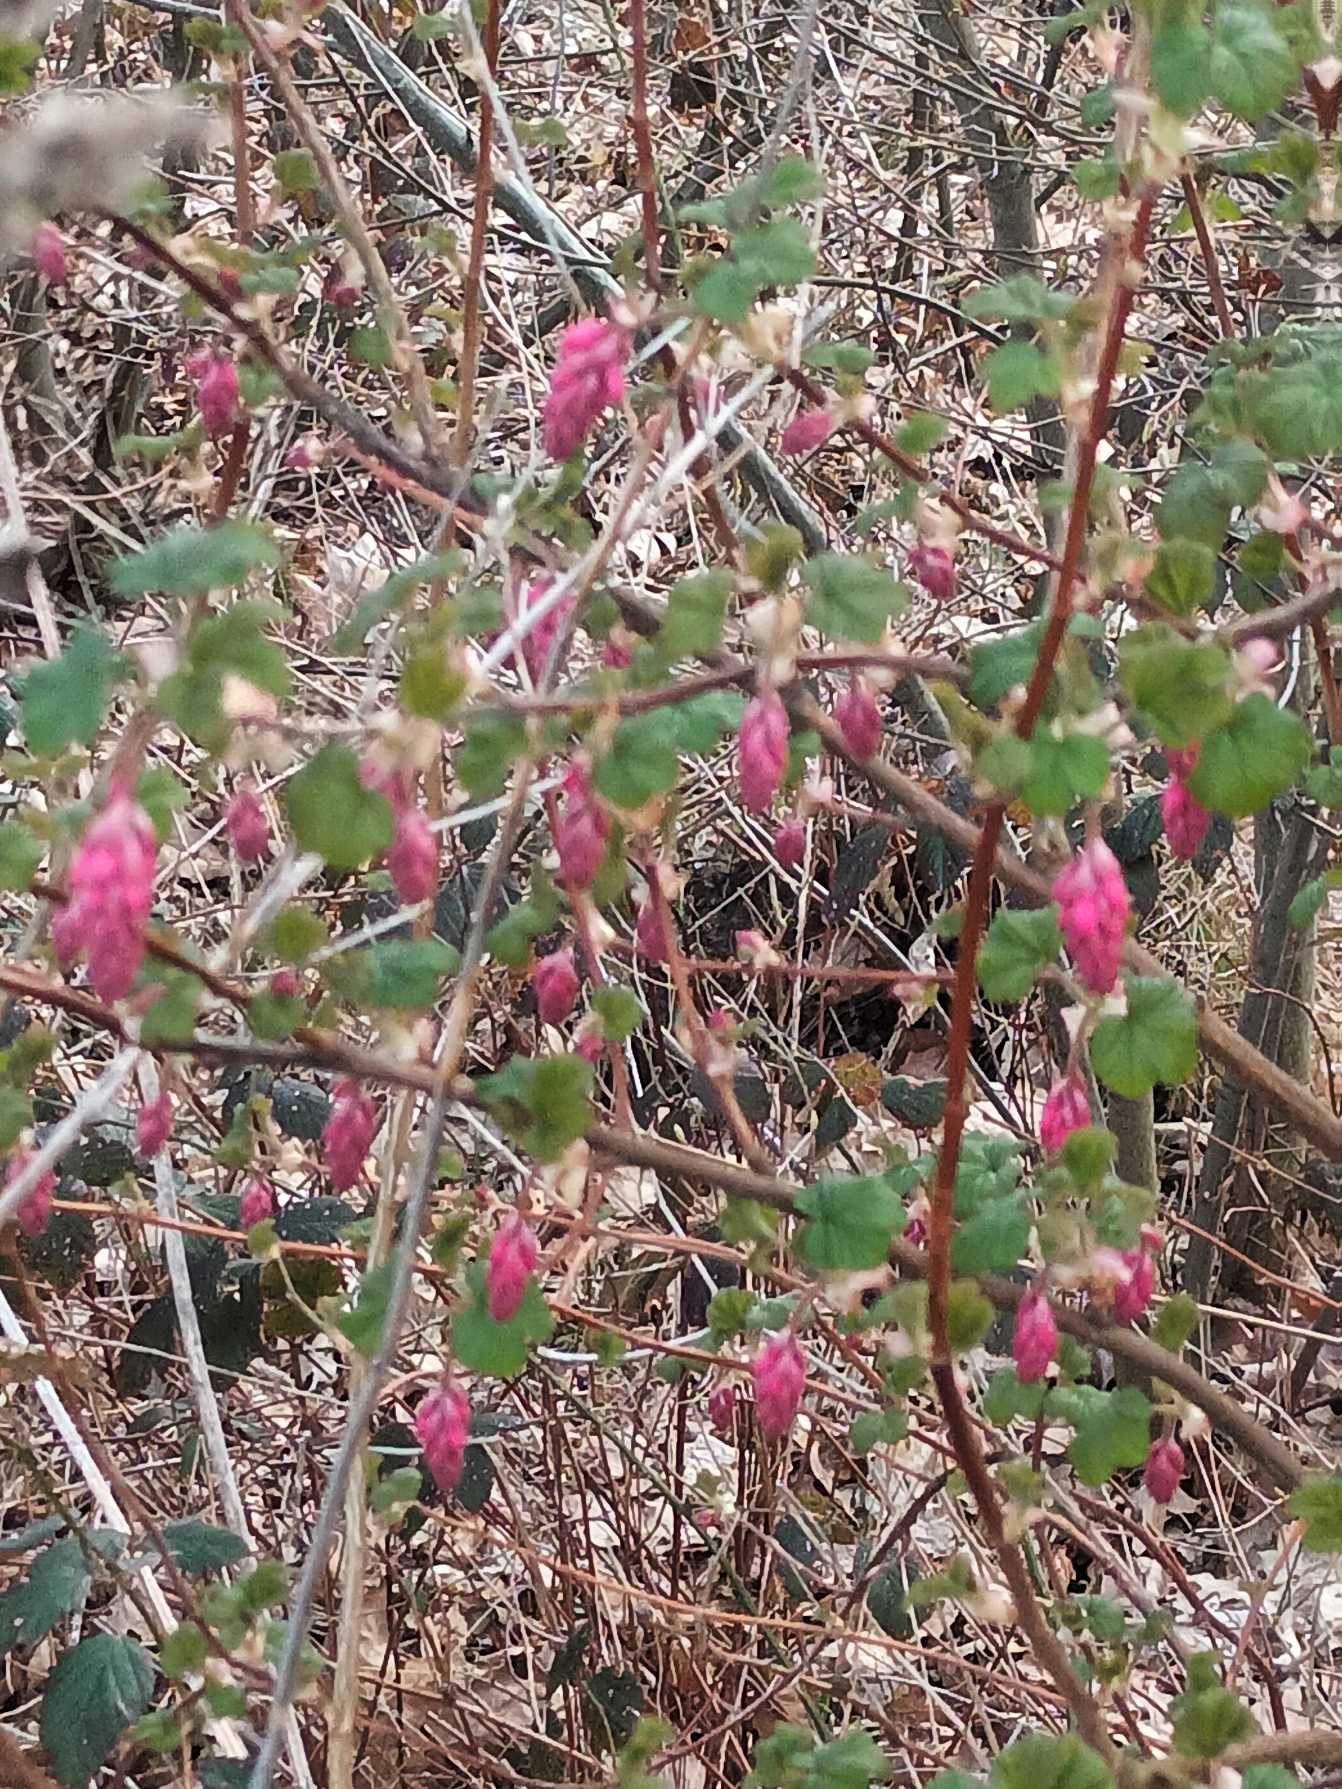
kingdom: Plantae
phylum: Tracheophyta
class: Magnoliopsida
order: Saxifragales
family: Grossulariaceae
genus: Ribes
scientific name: Ribes sanguineum
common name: Blod-ribs
